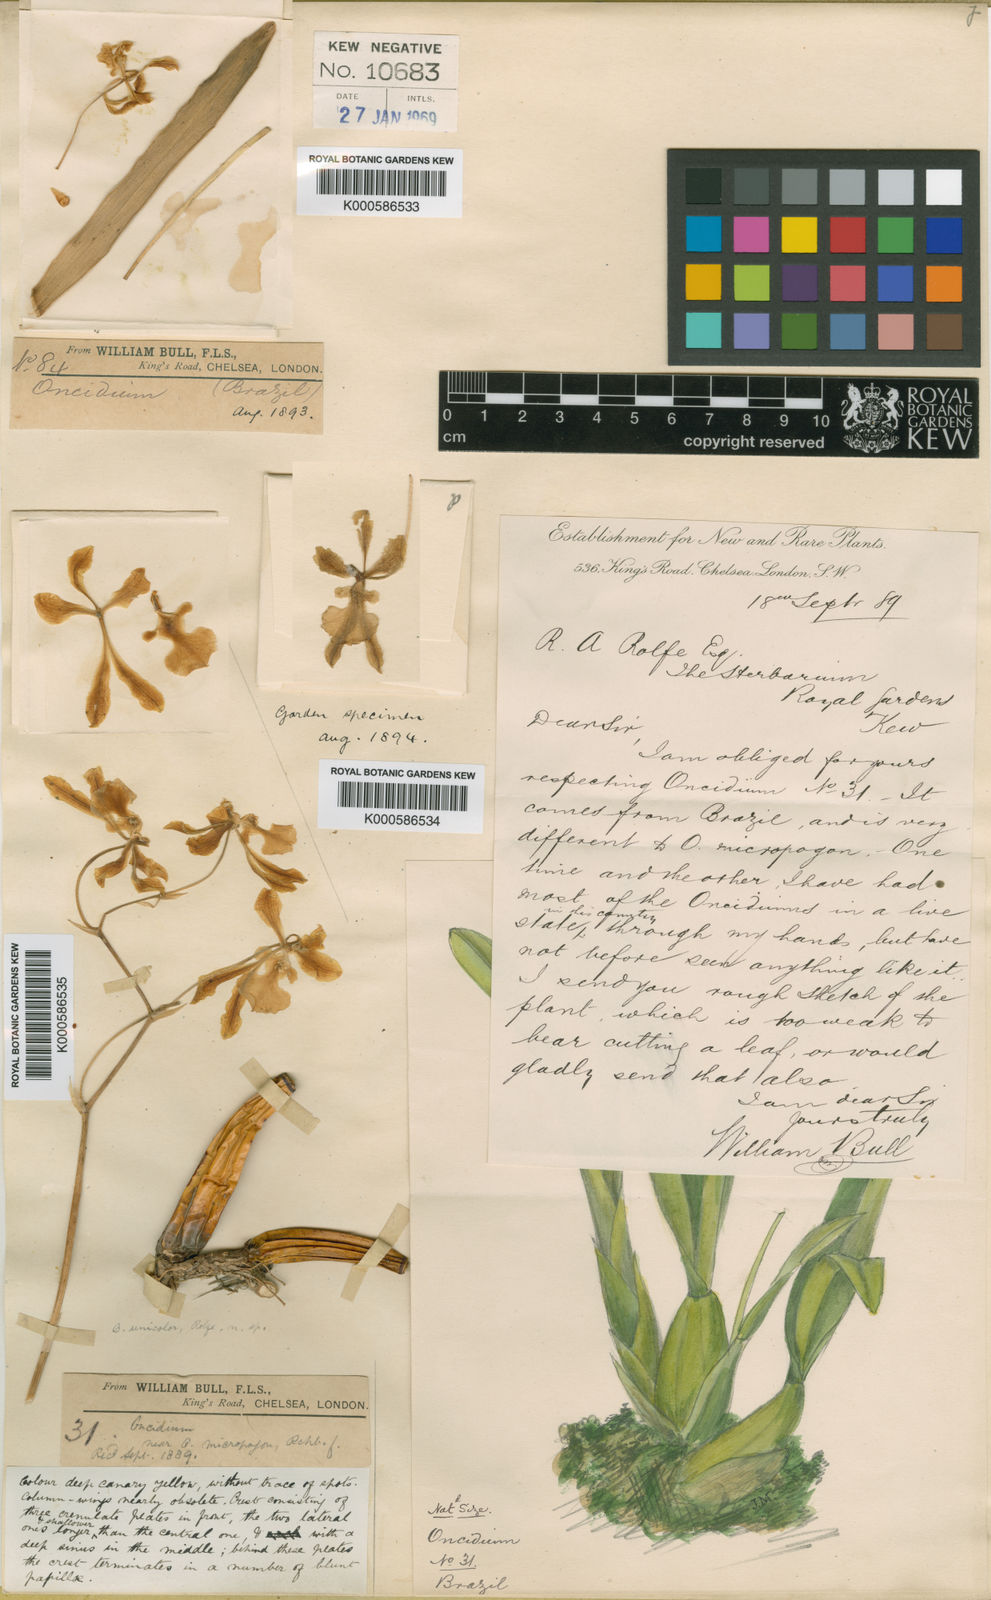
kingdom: Plantae
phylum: Tracheophyta
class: Liliopsida
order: Asparagales
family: Orchidaceae
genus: Gomesa
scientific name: Gomesa uniflora
